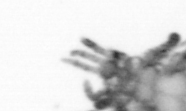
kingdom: Animalia
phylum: Annelida
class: Polychaeta
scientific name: Polychaeta
